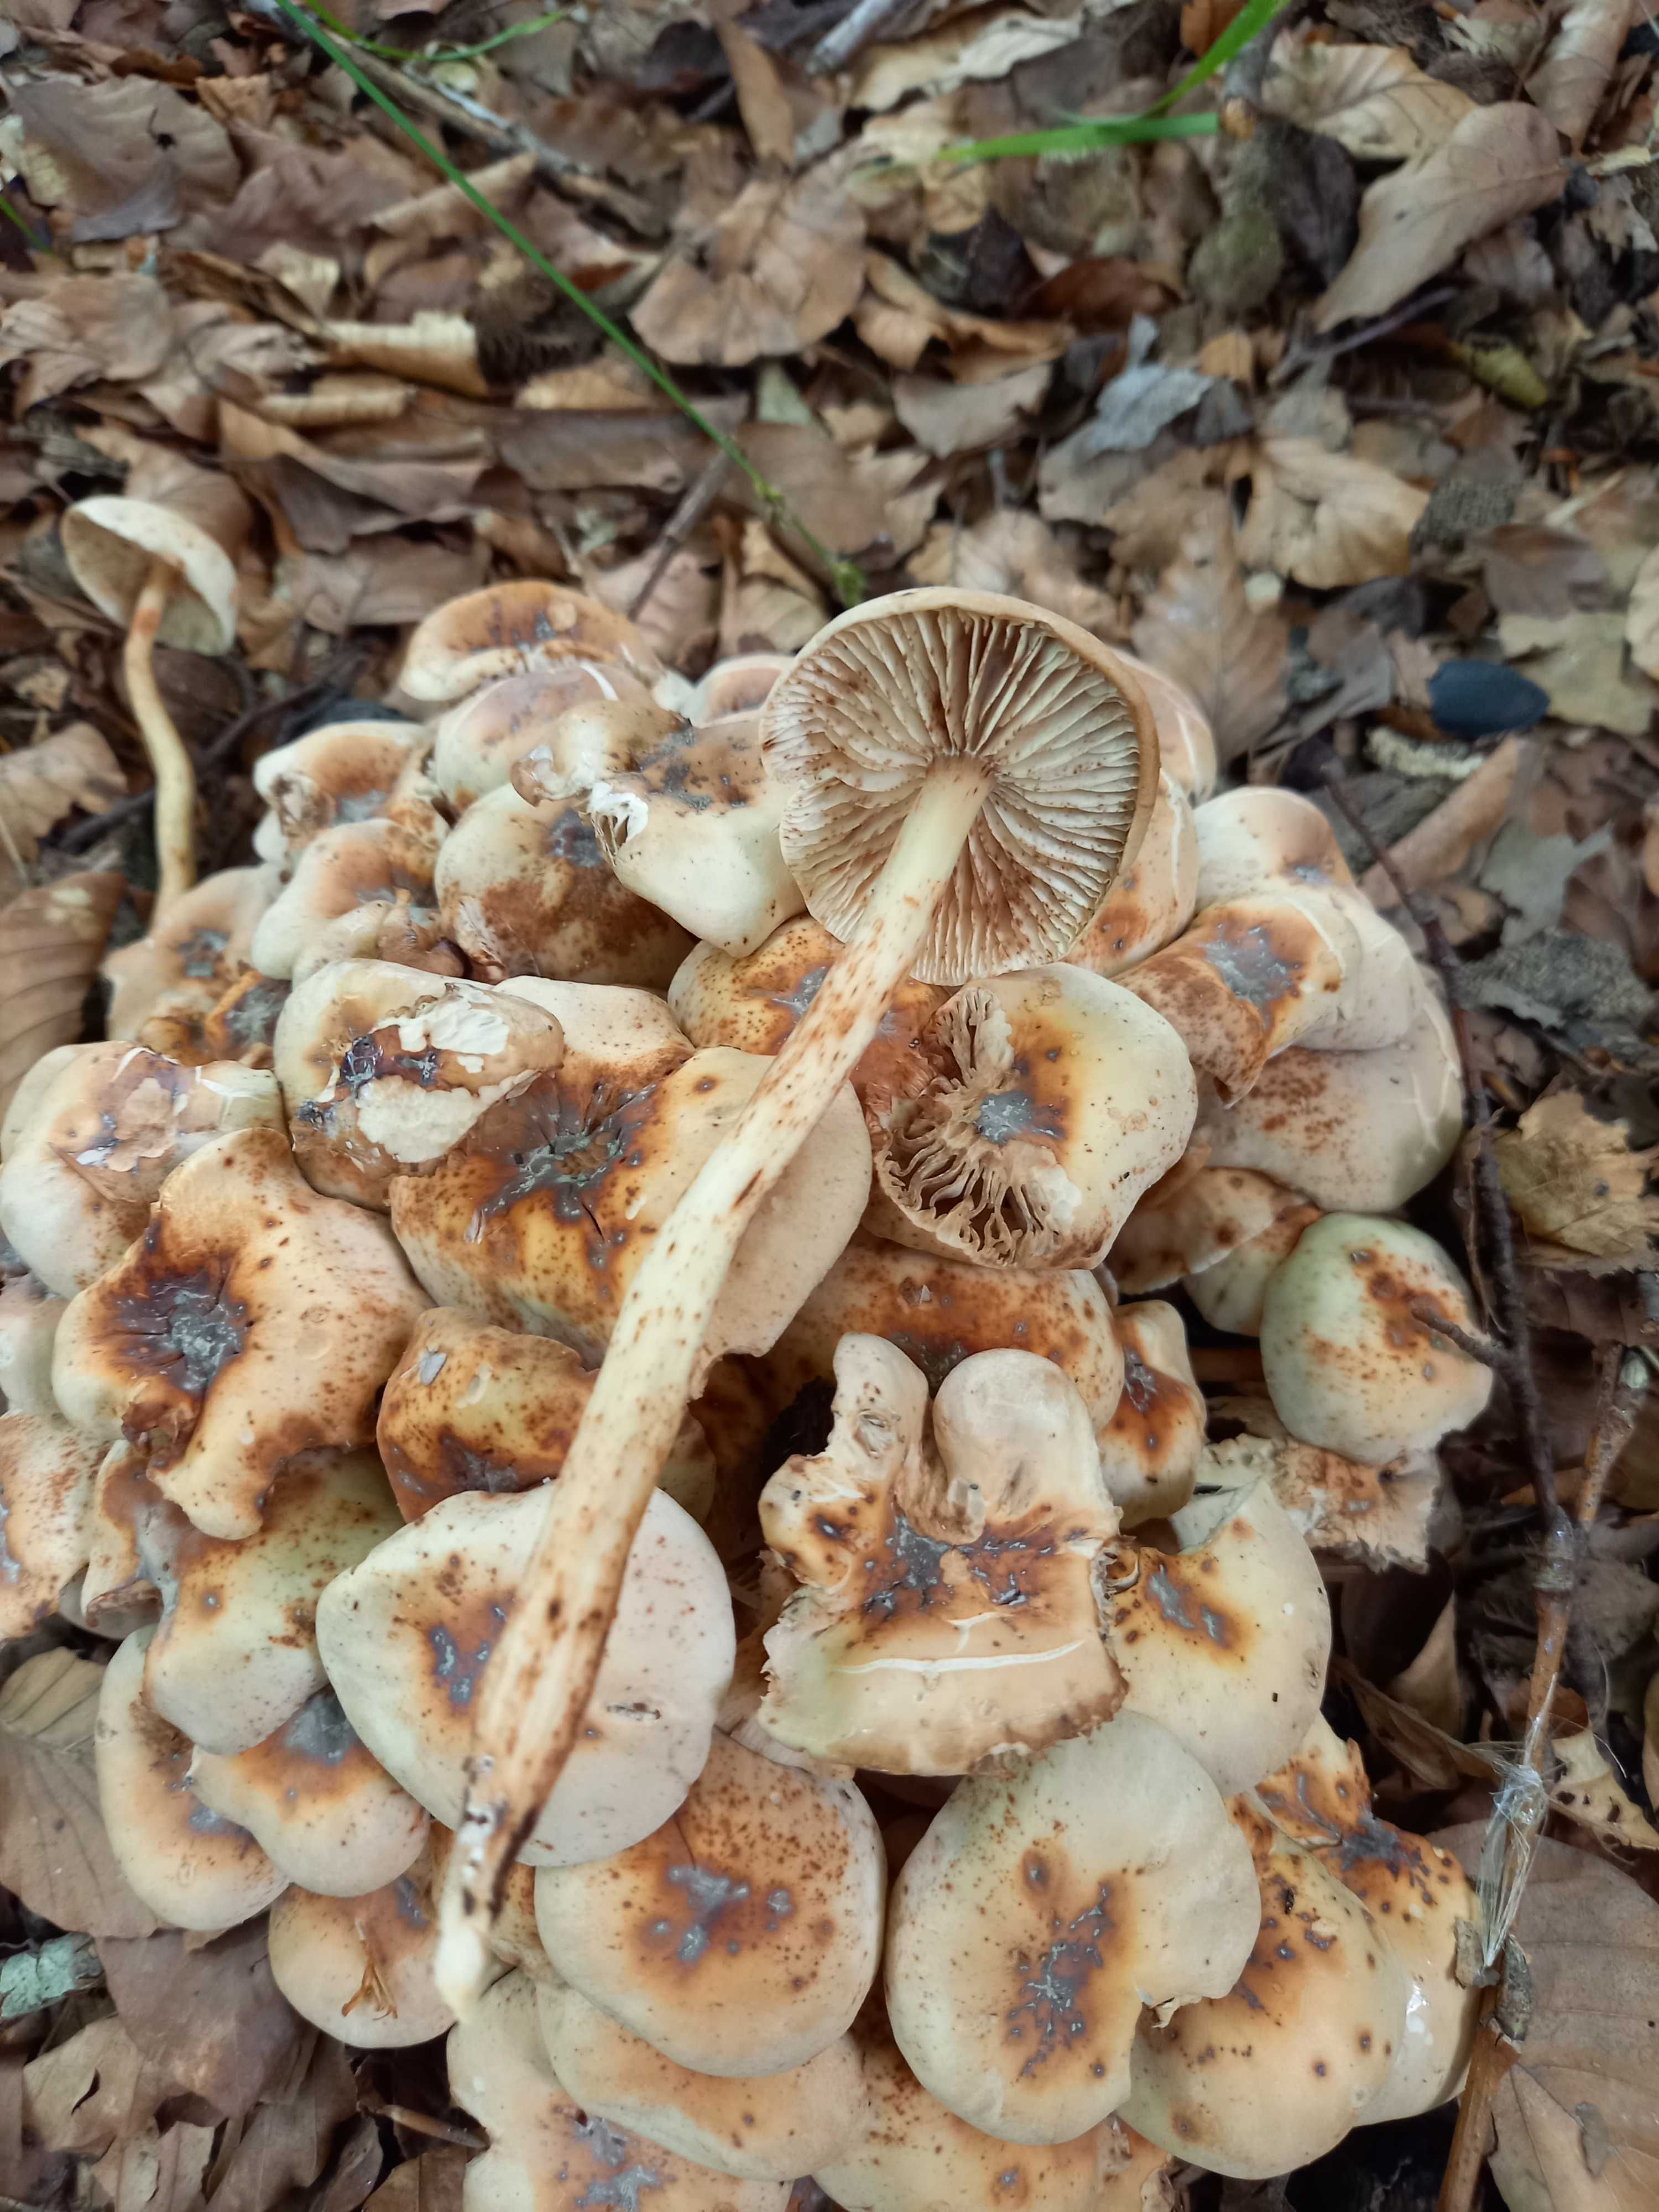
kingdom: Fungi
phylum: Basidiomycota
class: Agaricomycetes
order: Agaricales
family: Omphalotaceae
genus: Gymnopus
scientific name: Gymnopus fusipes
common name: tenstokket fladhat
